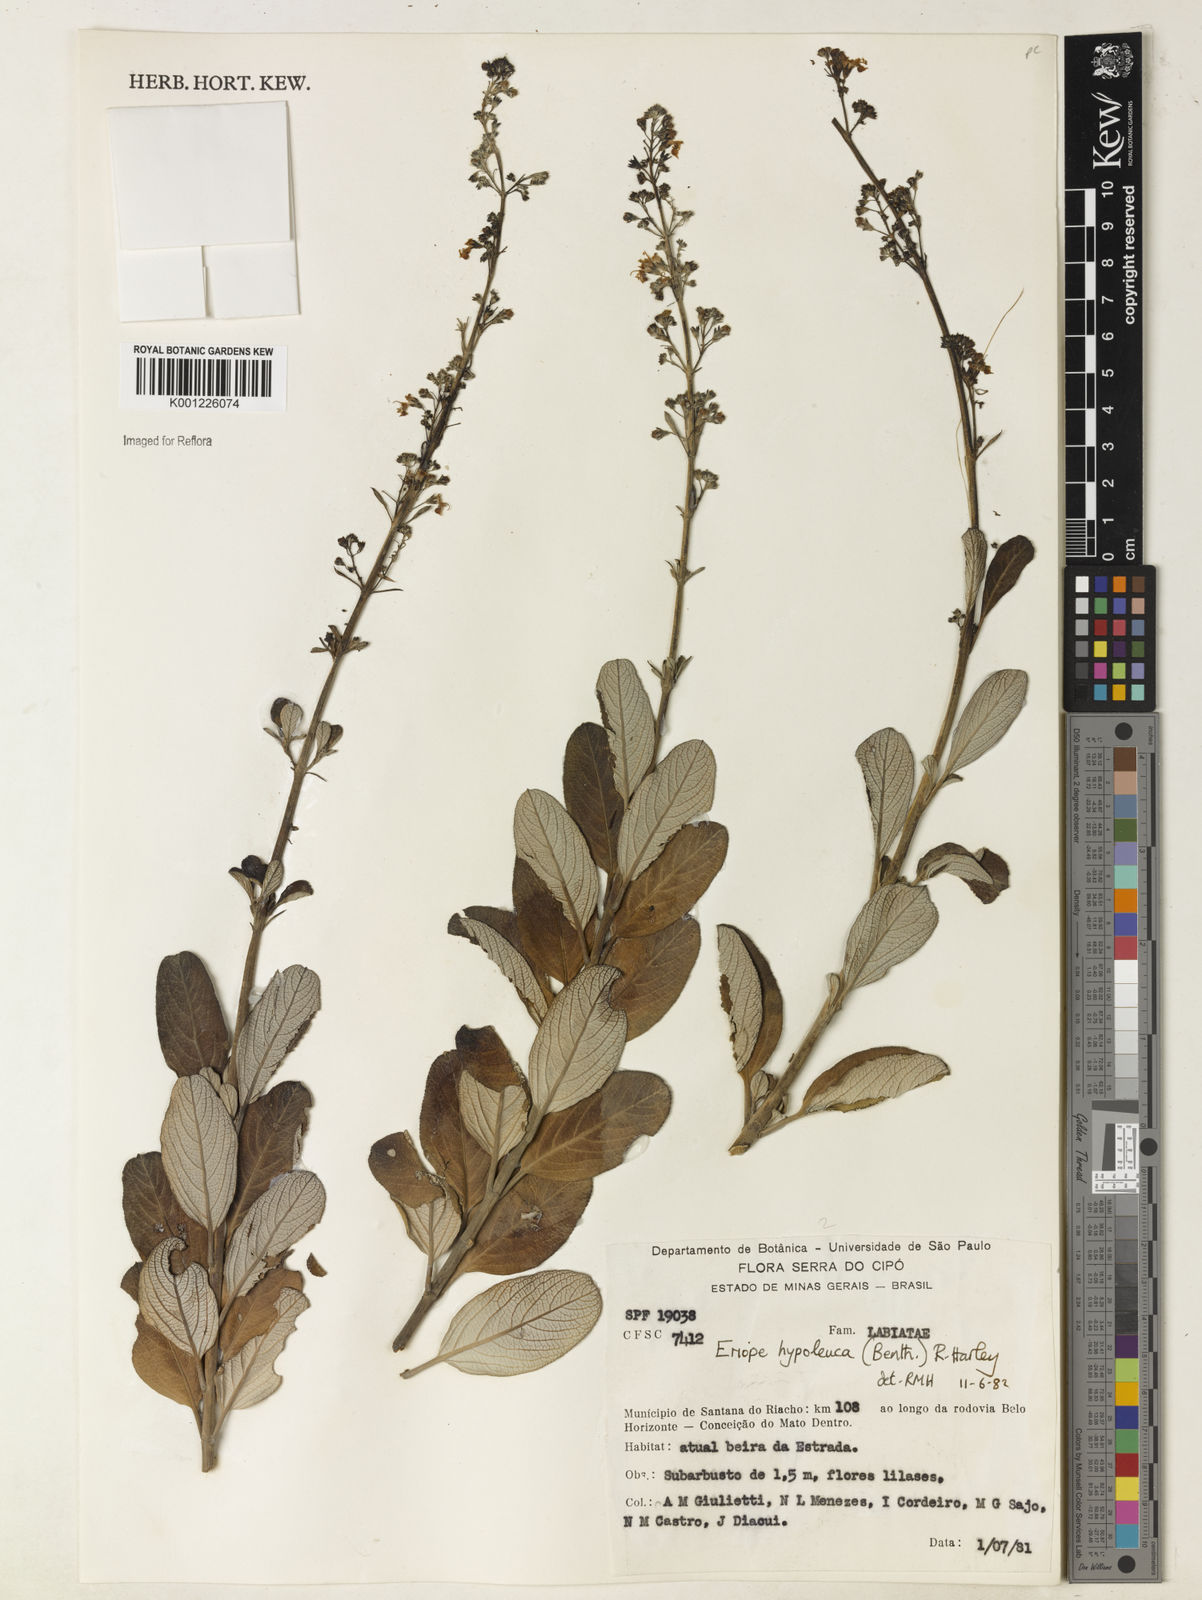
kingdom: Plantae
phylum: Tracheophyta
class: Magnoliopsida
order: Lamiales
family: Lamiaceae
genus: Eriope
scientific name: Eriope hypoleuca
